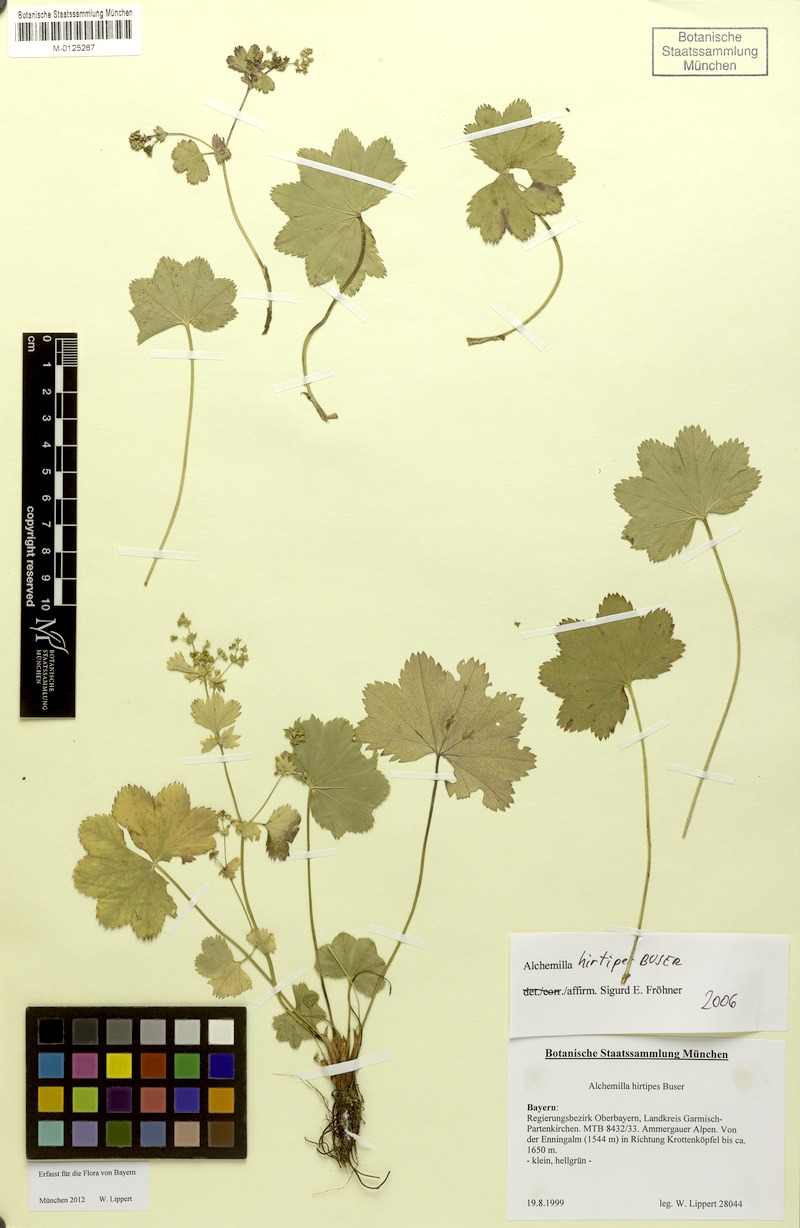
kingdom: Plantae
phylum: Tracheophyta
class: Magnoliopsida
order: Rosales
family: Rosaceae
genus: Alchemilla
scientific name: Alchemilla hirtipes
